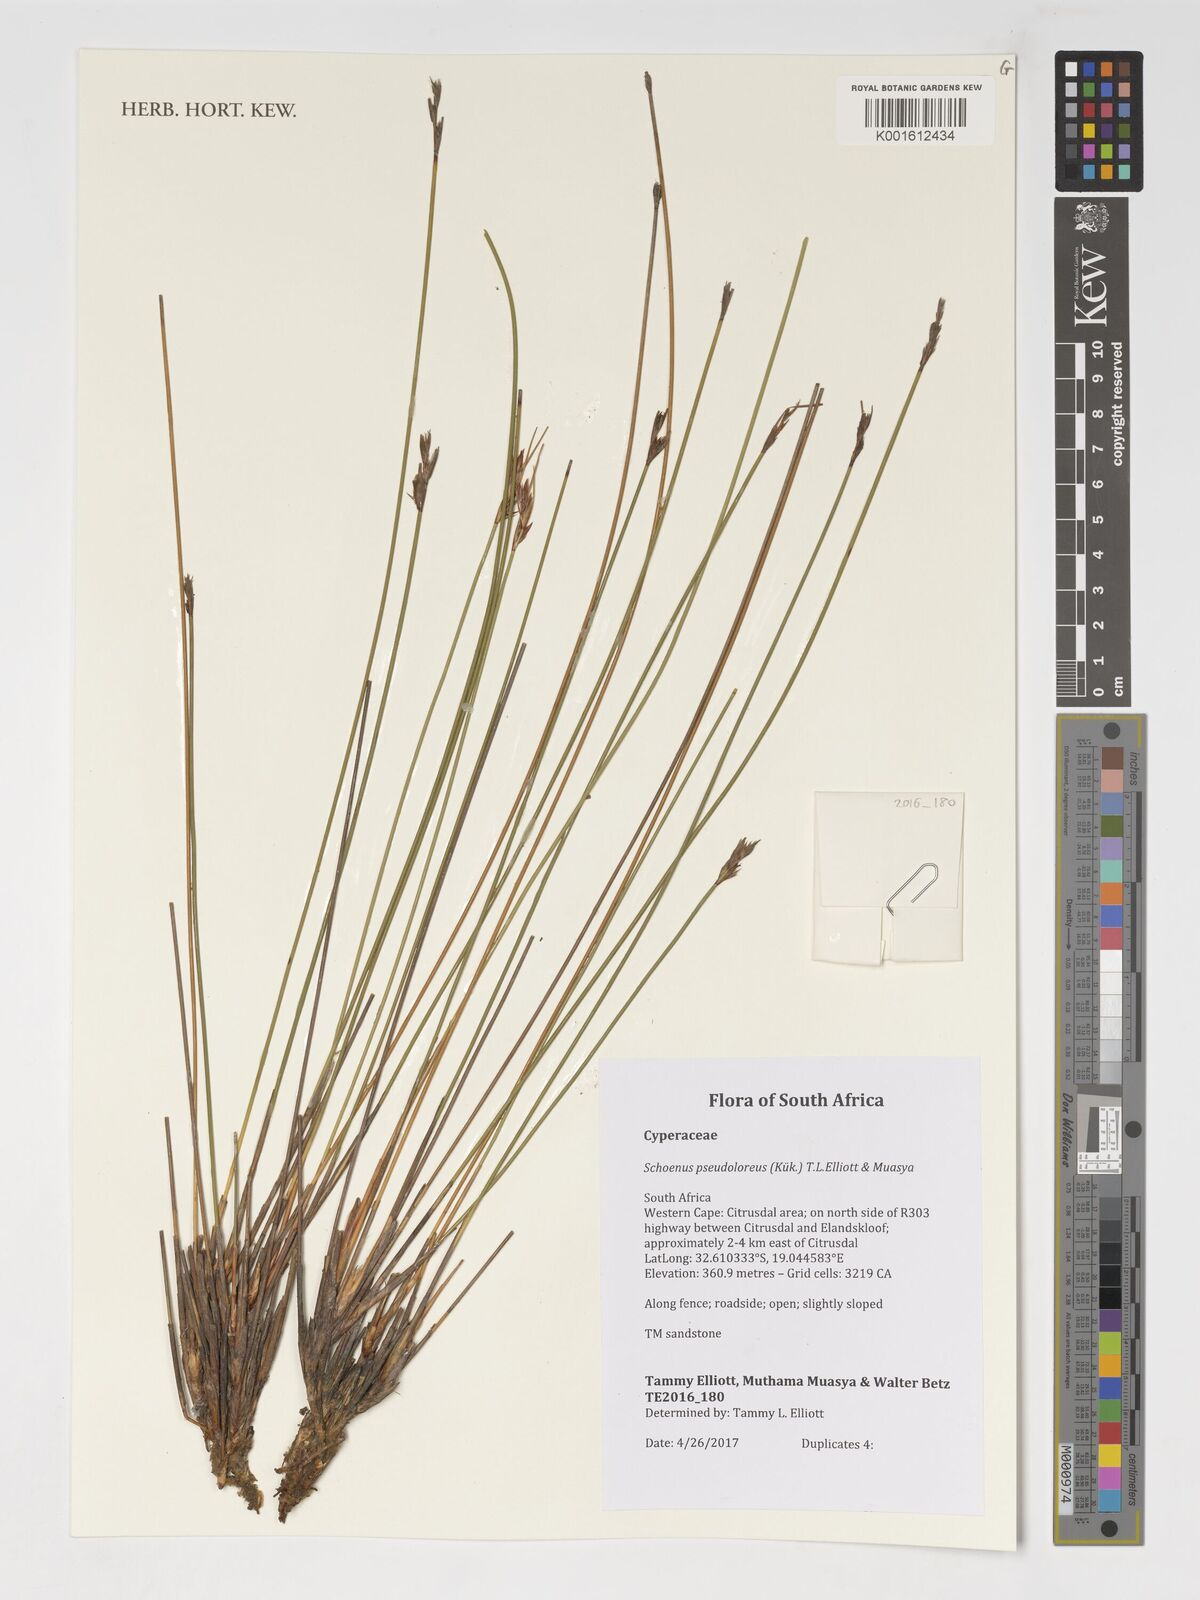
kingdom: Plantae
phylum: Tracheophyta
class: Liliopsida
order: Poales
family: Cyperaceae
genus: Schoenus
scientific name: Schoenus pseudoloreus
